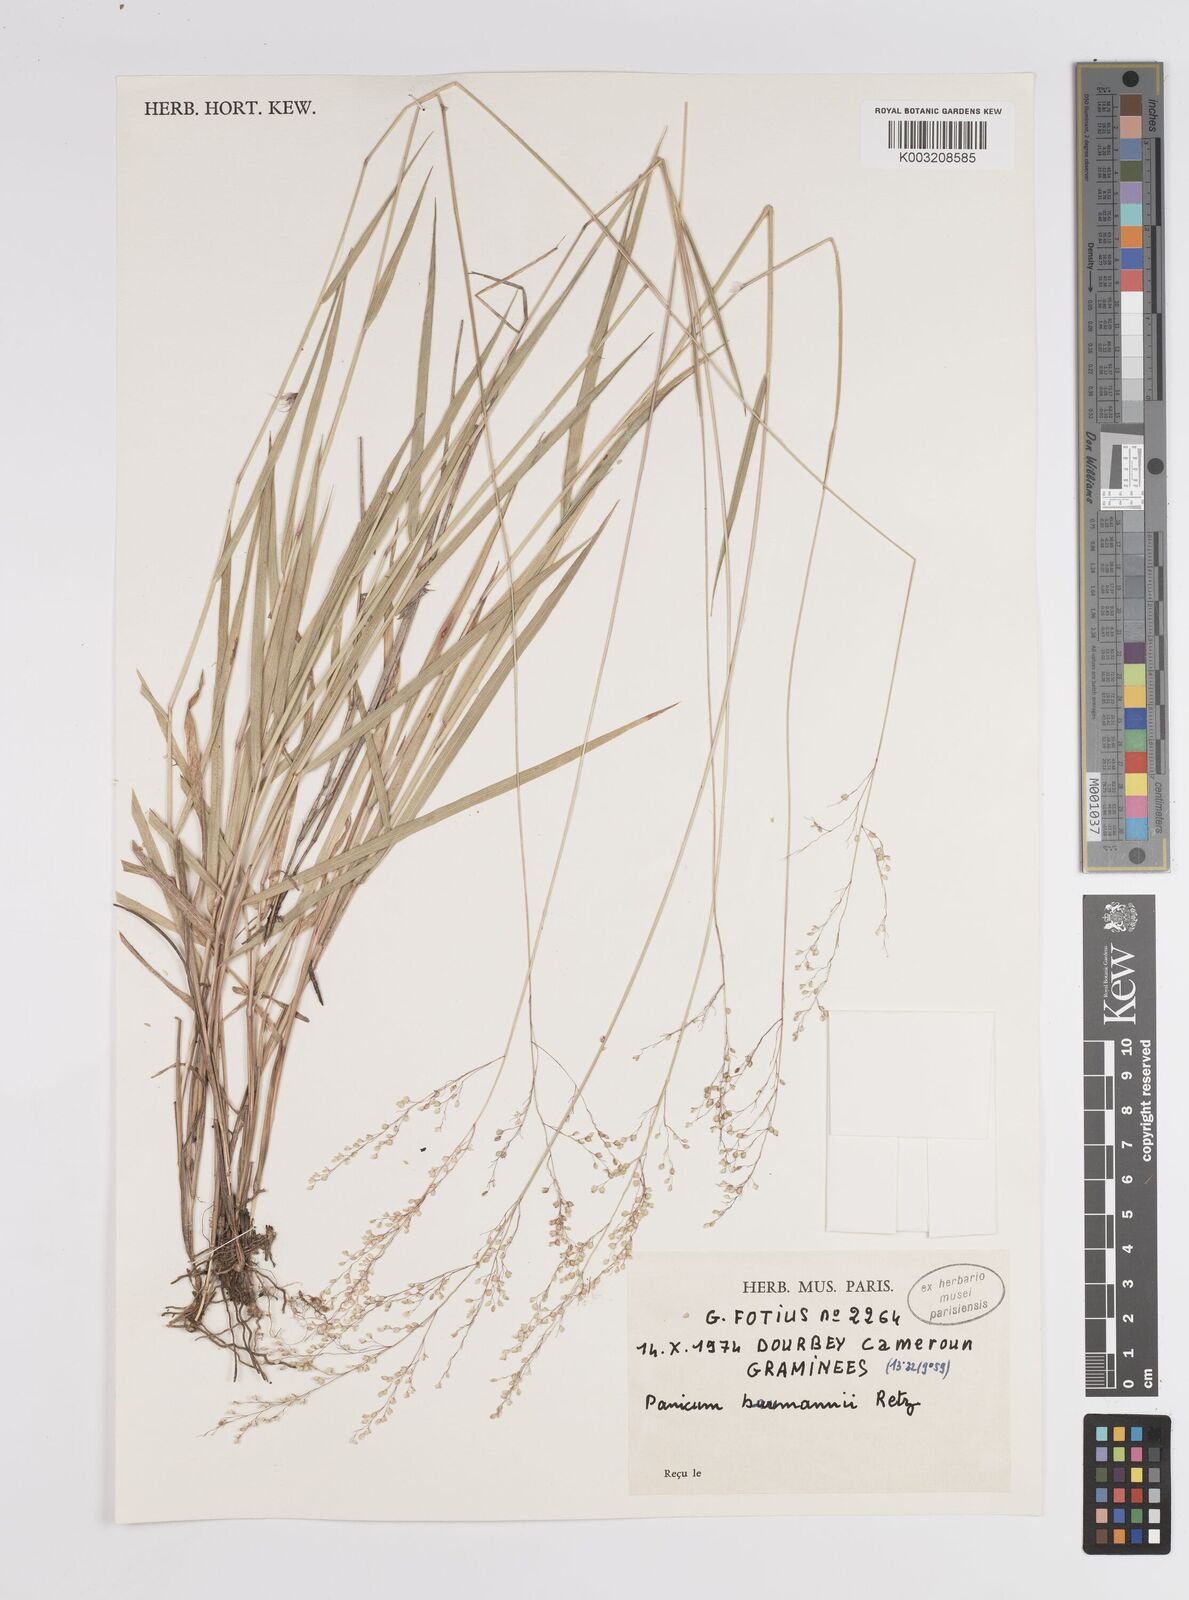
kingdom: Plantae
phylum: Tracheophyta
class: Liliopsida
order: Poales
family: Poaceae
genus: Trichanthecium
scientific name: Trichanthecium nervatum
